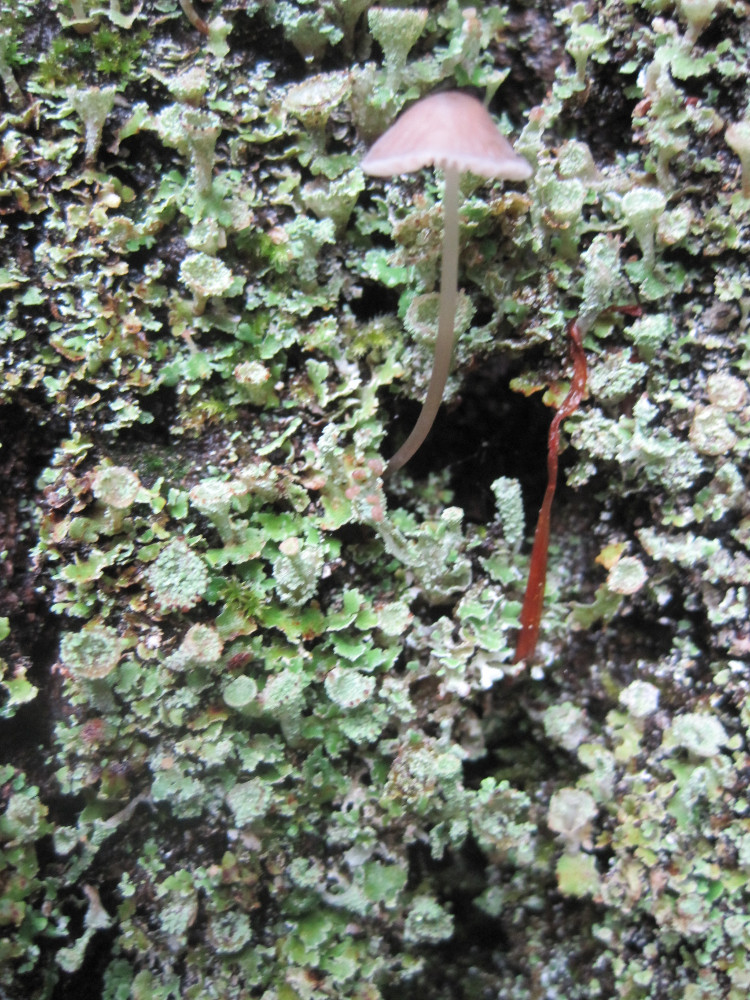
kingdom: Fungi
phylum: Basidiomycota
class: Agaricomycetes
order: Agaricales
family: Mycenaceae
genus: Mycena
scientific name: Mycena erubescens
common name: galde-huesvamp
